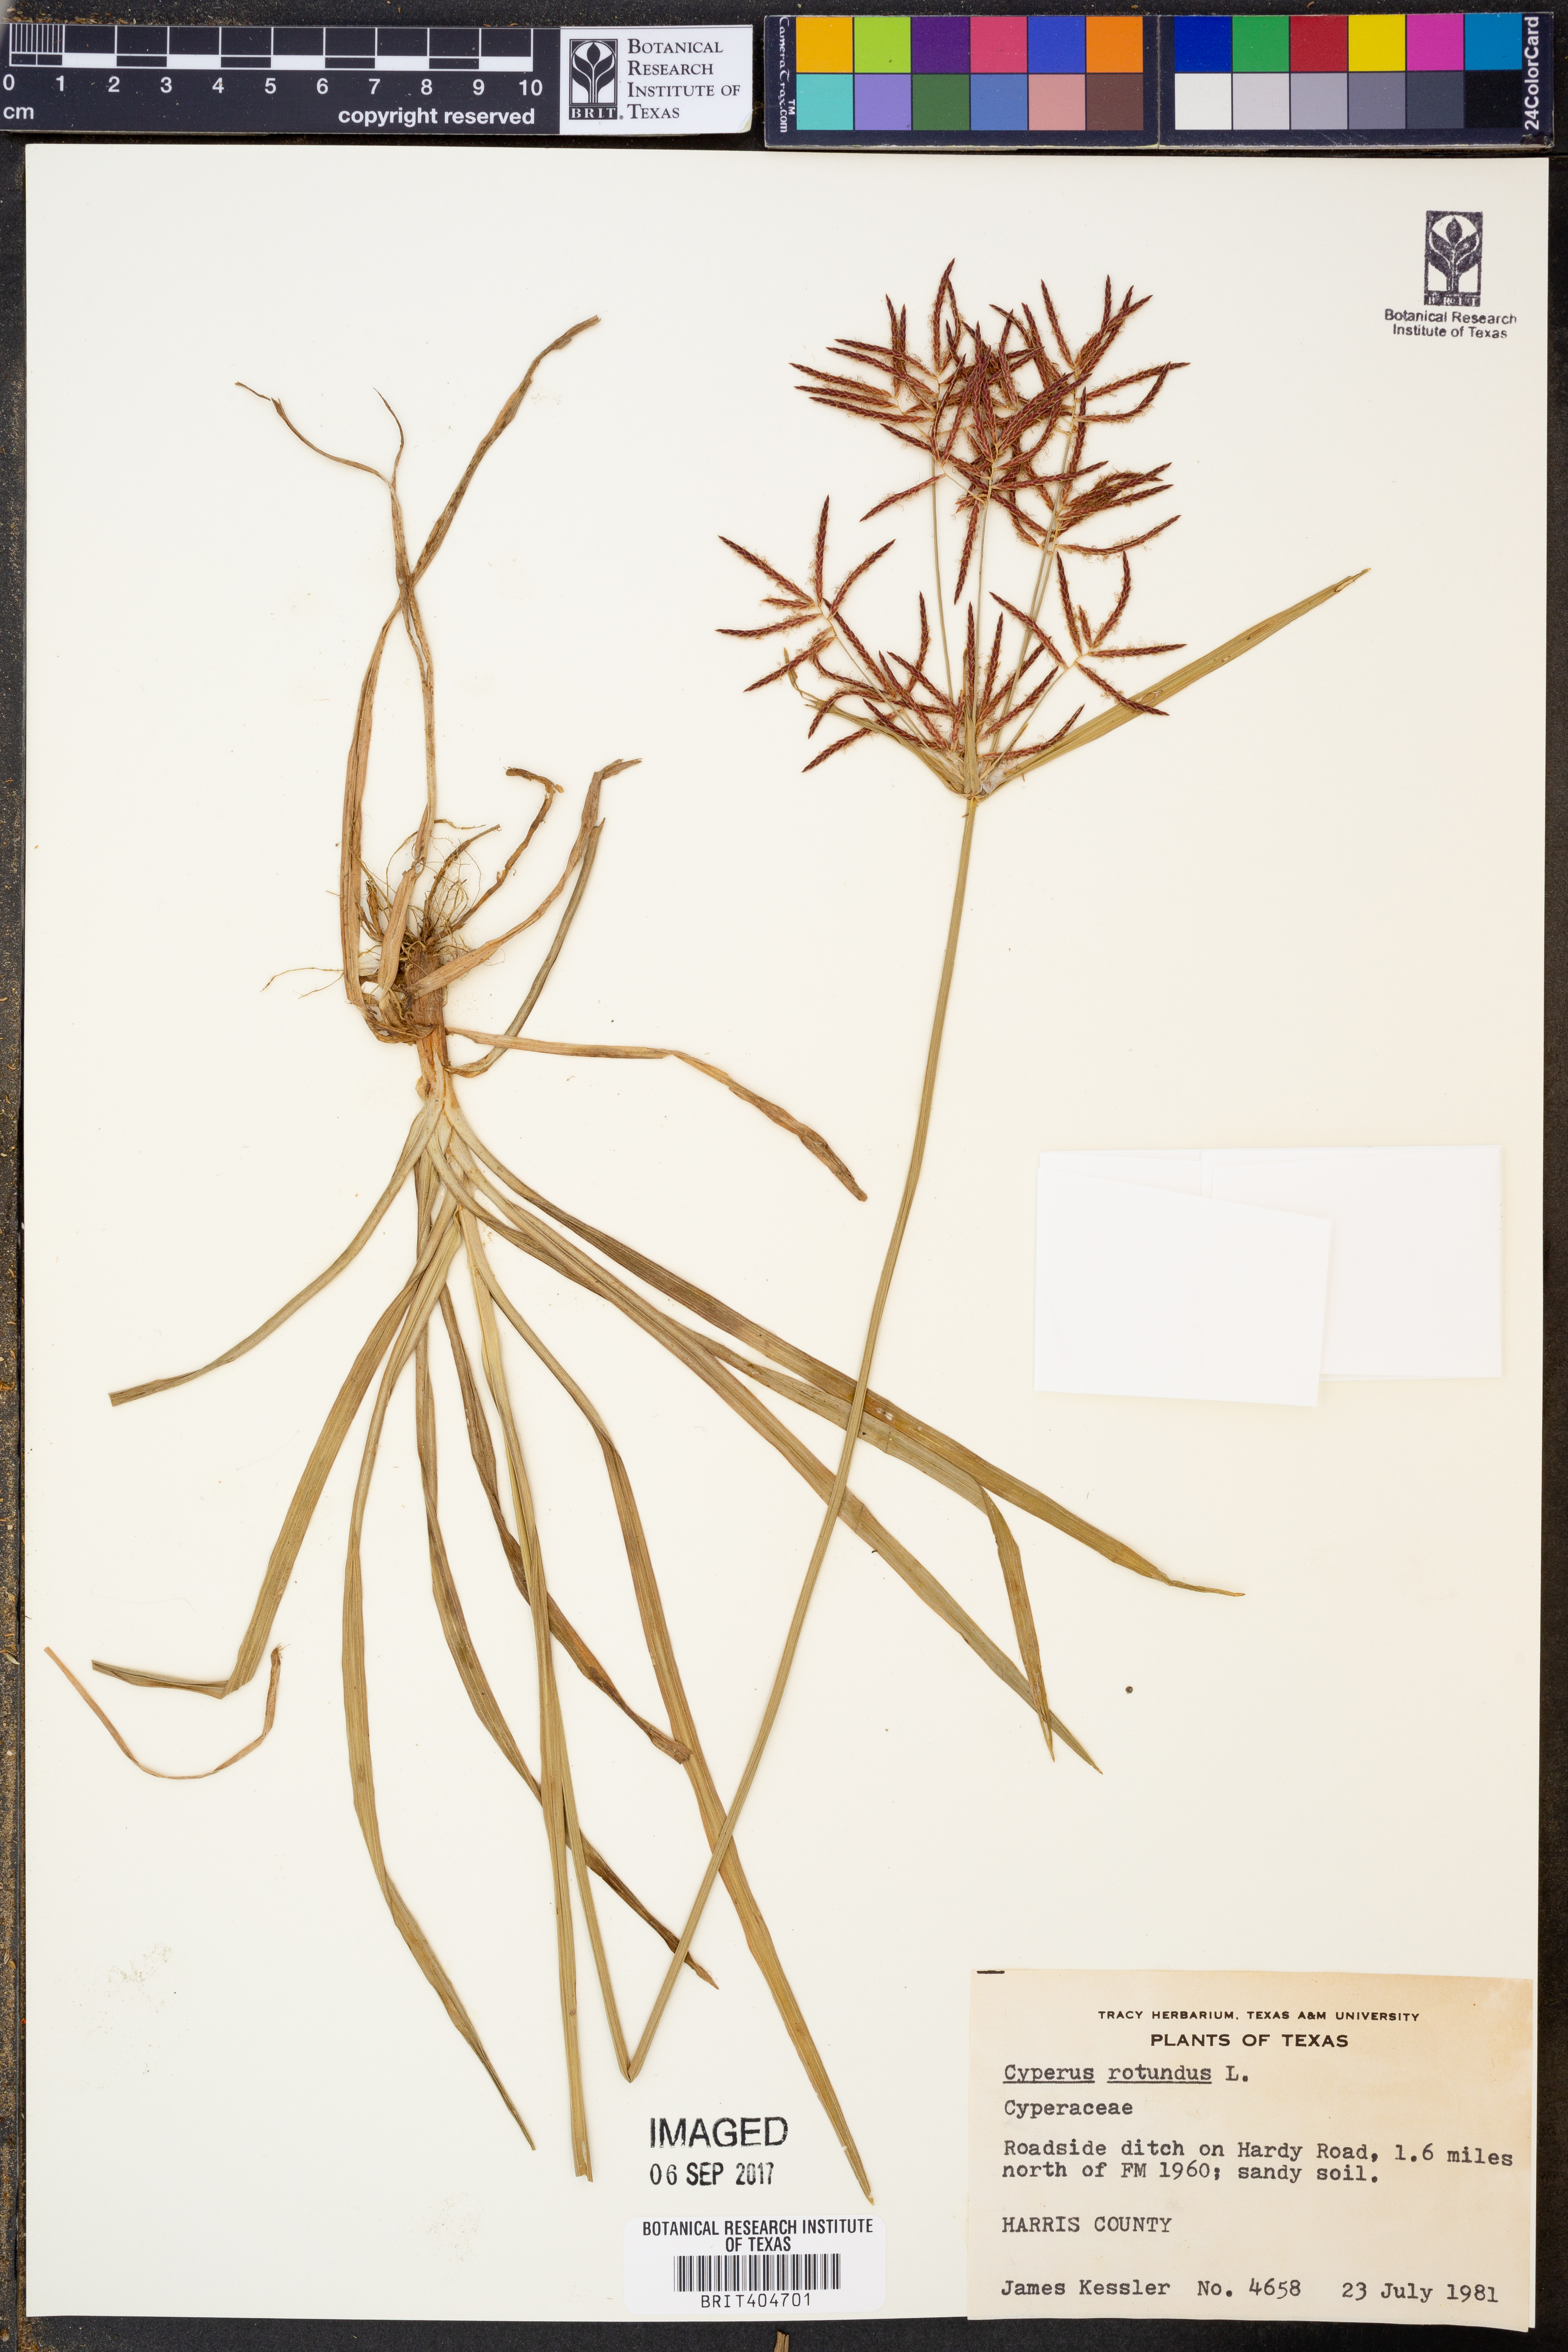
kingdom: Plantae
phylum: Tracheophyta
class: Liliopsida
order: Poales
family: Cyperaceae
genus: Cyperus
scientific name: Cyperus rotundus
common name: Nutgrass
